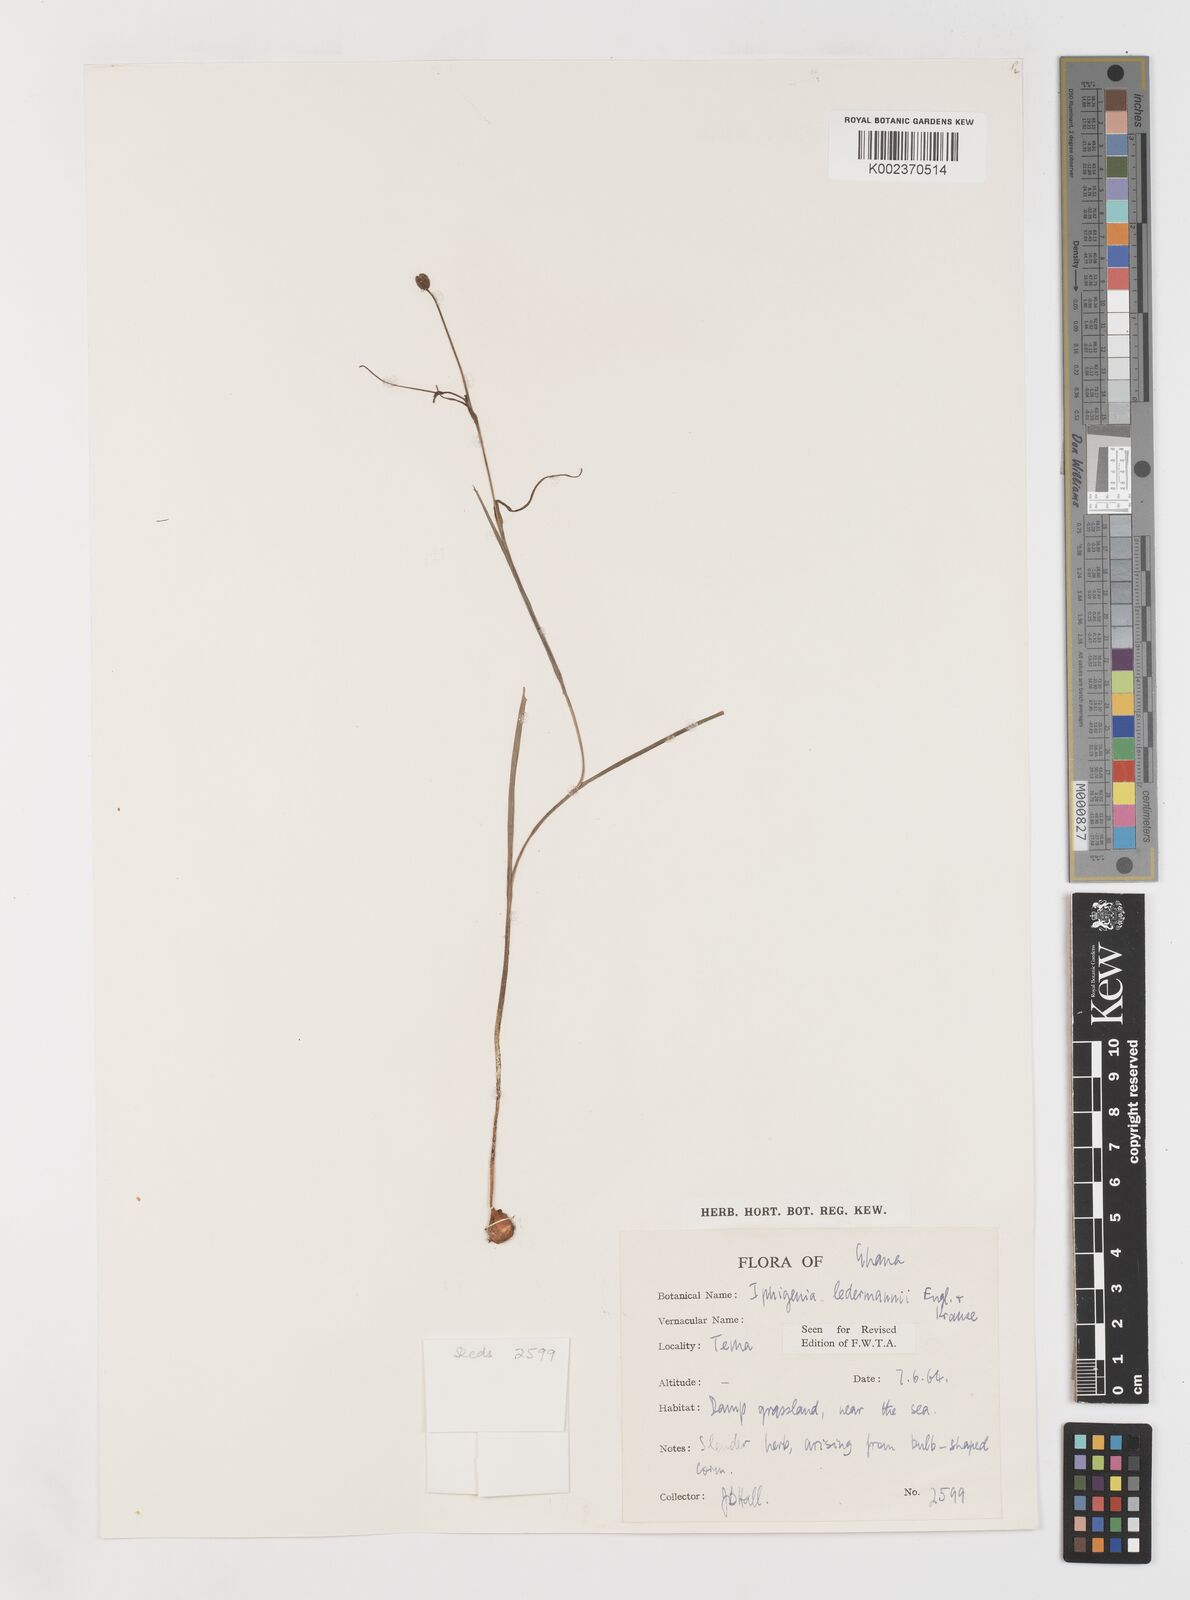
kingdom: Plantae
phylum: Tracheophyta
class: Liliopsida
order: Liliales
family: Colchicaceae
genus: Iphigenia
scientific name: Iphigenia pauciflora
